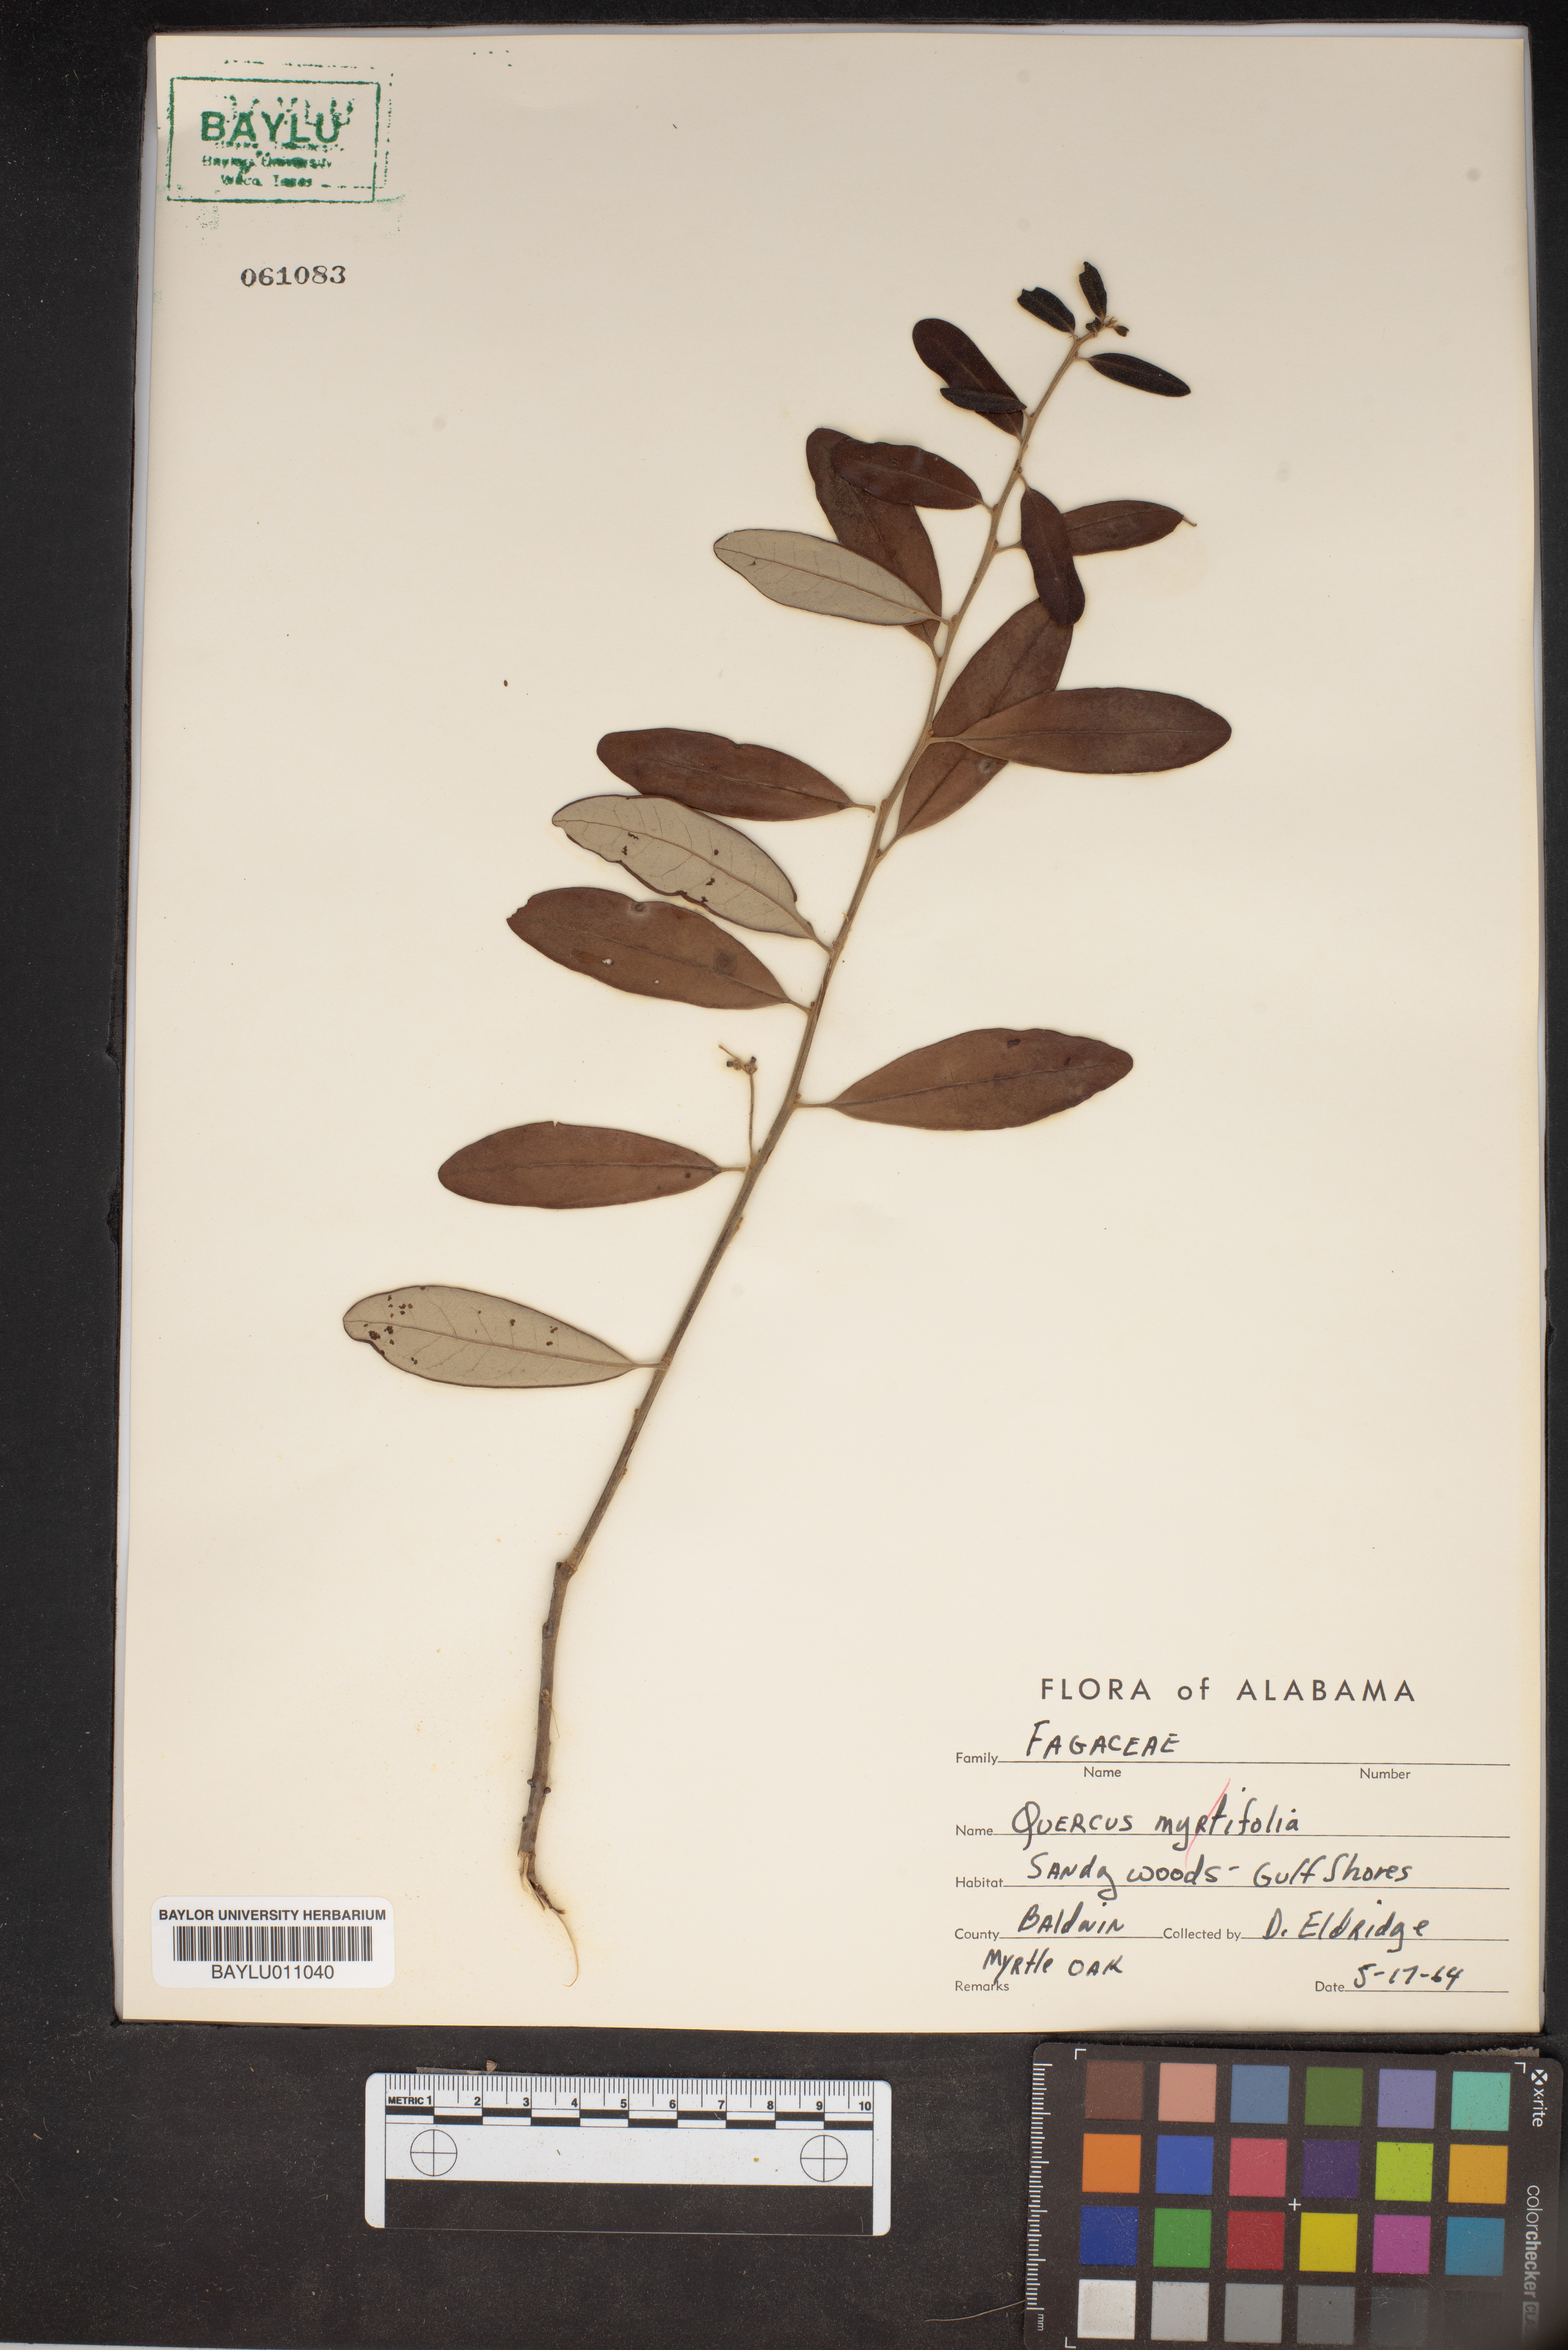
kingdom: Plantae
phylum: Tracheophyta
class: Magnoliopsida
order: Fagales
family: Fagaceae
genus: Quercus
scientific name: Quercus myrtifolia
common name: Myrtle oak
